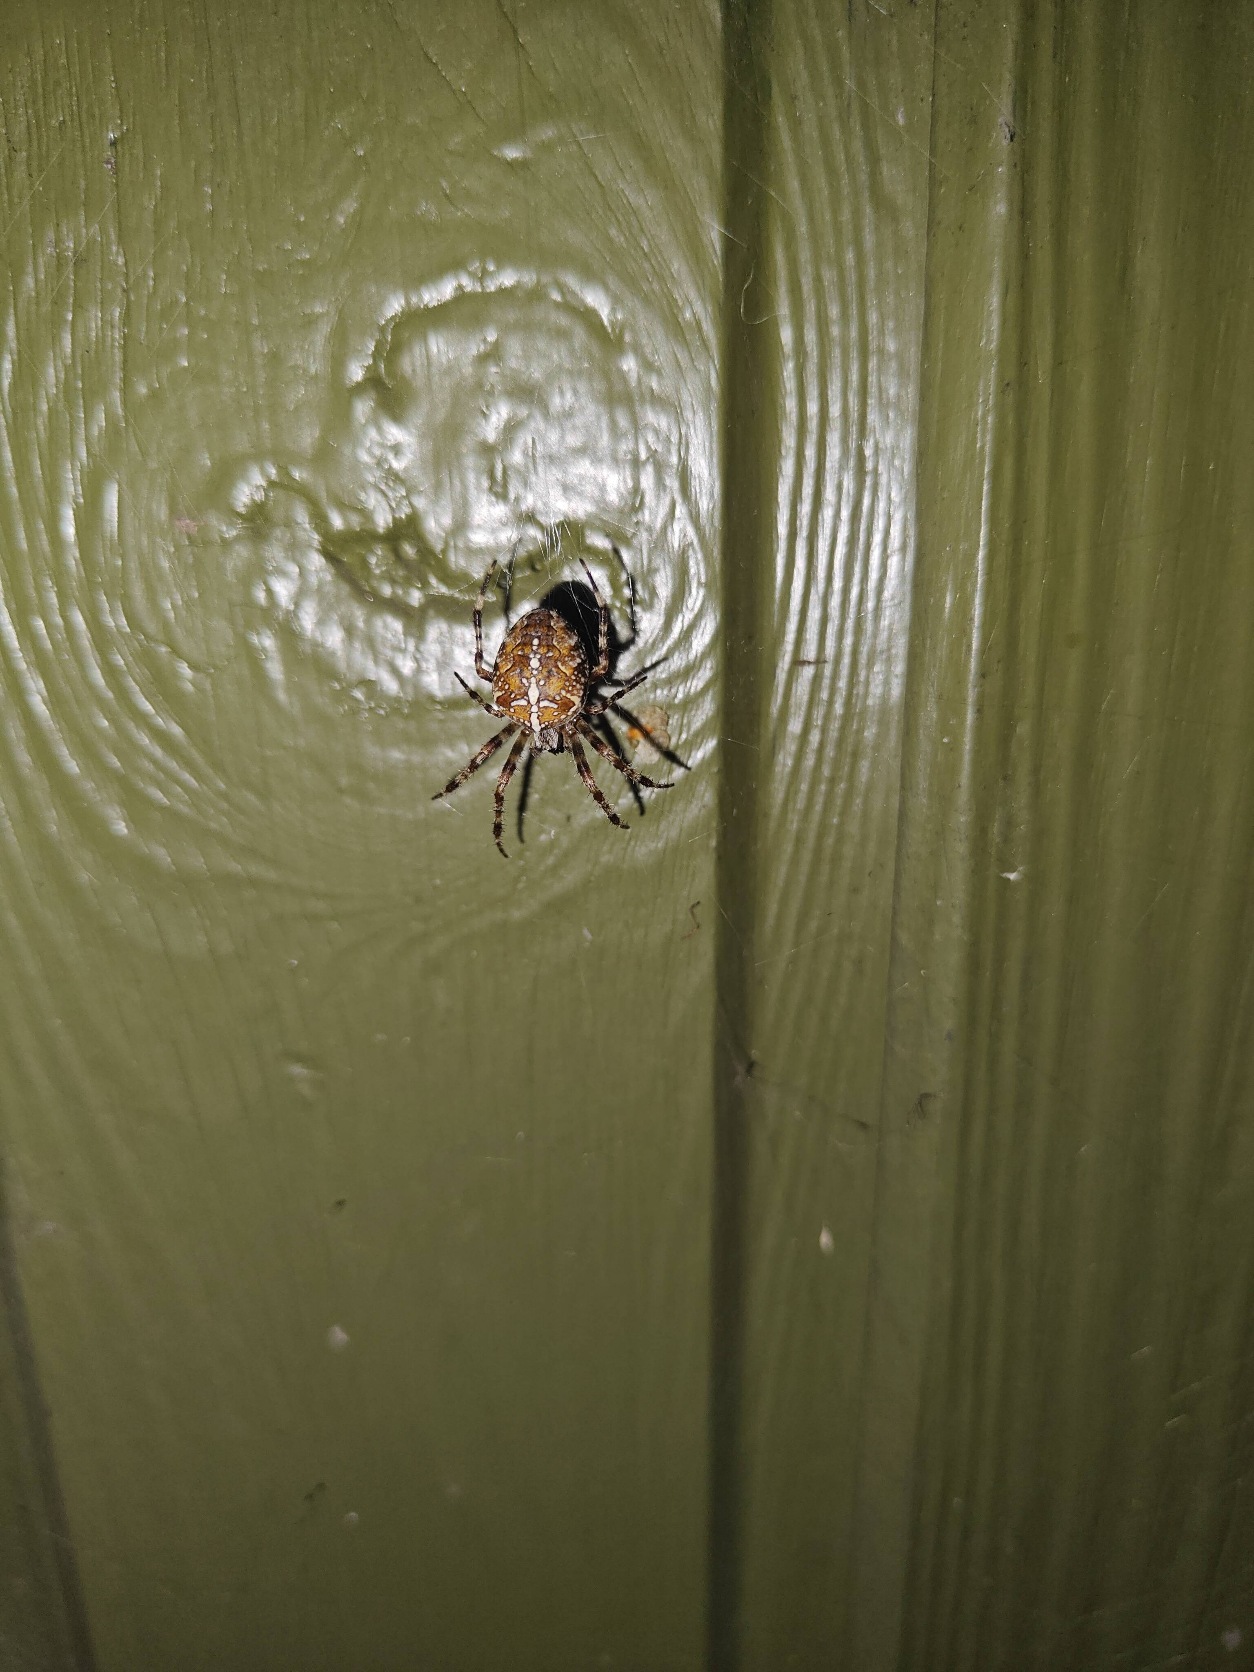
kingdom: Animalia
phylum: Arthropoda
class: Arachnida
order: Araneae
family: Araneidae
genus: Araneus
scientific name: Araneus diadematus
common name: Korsedderkop
